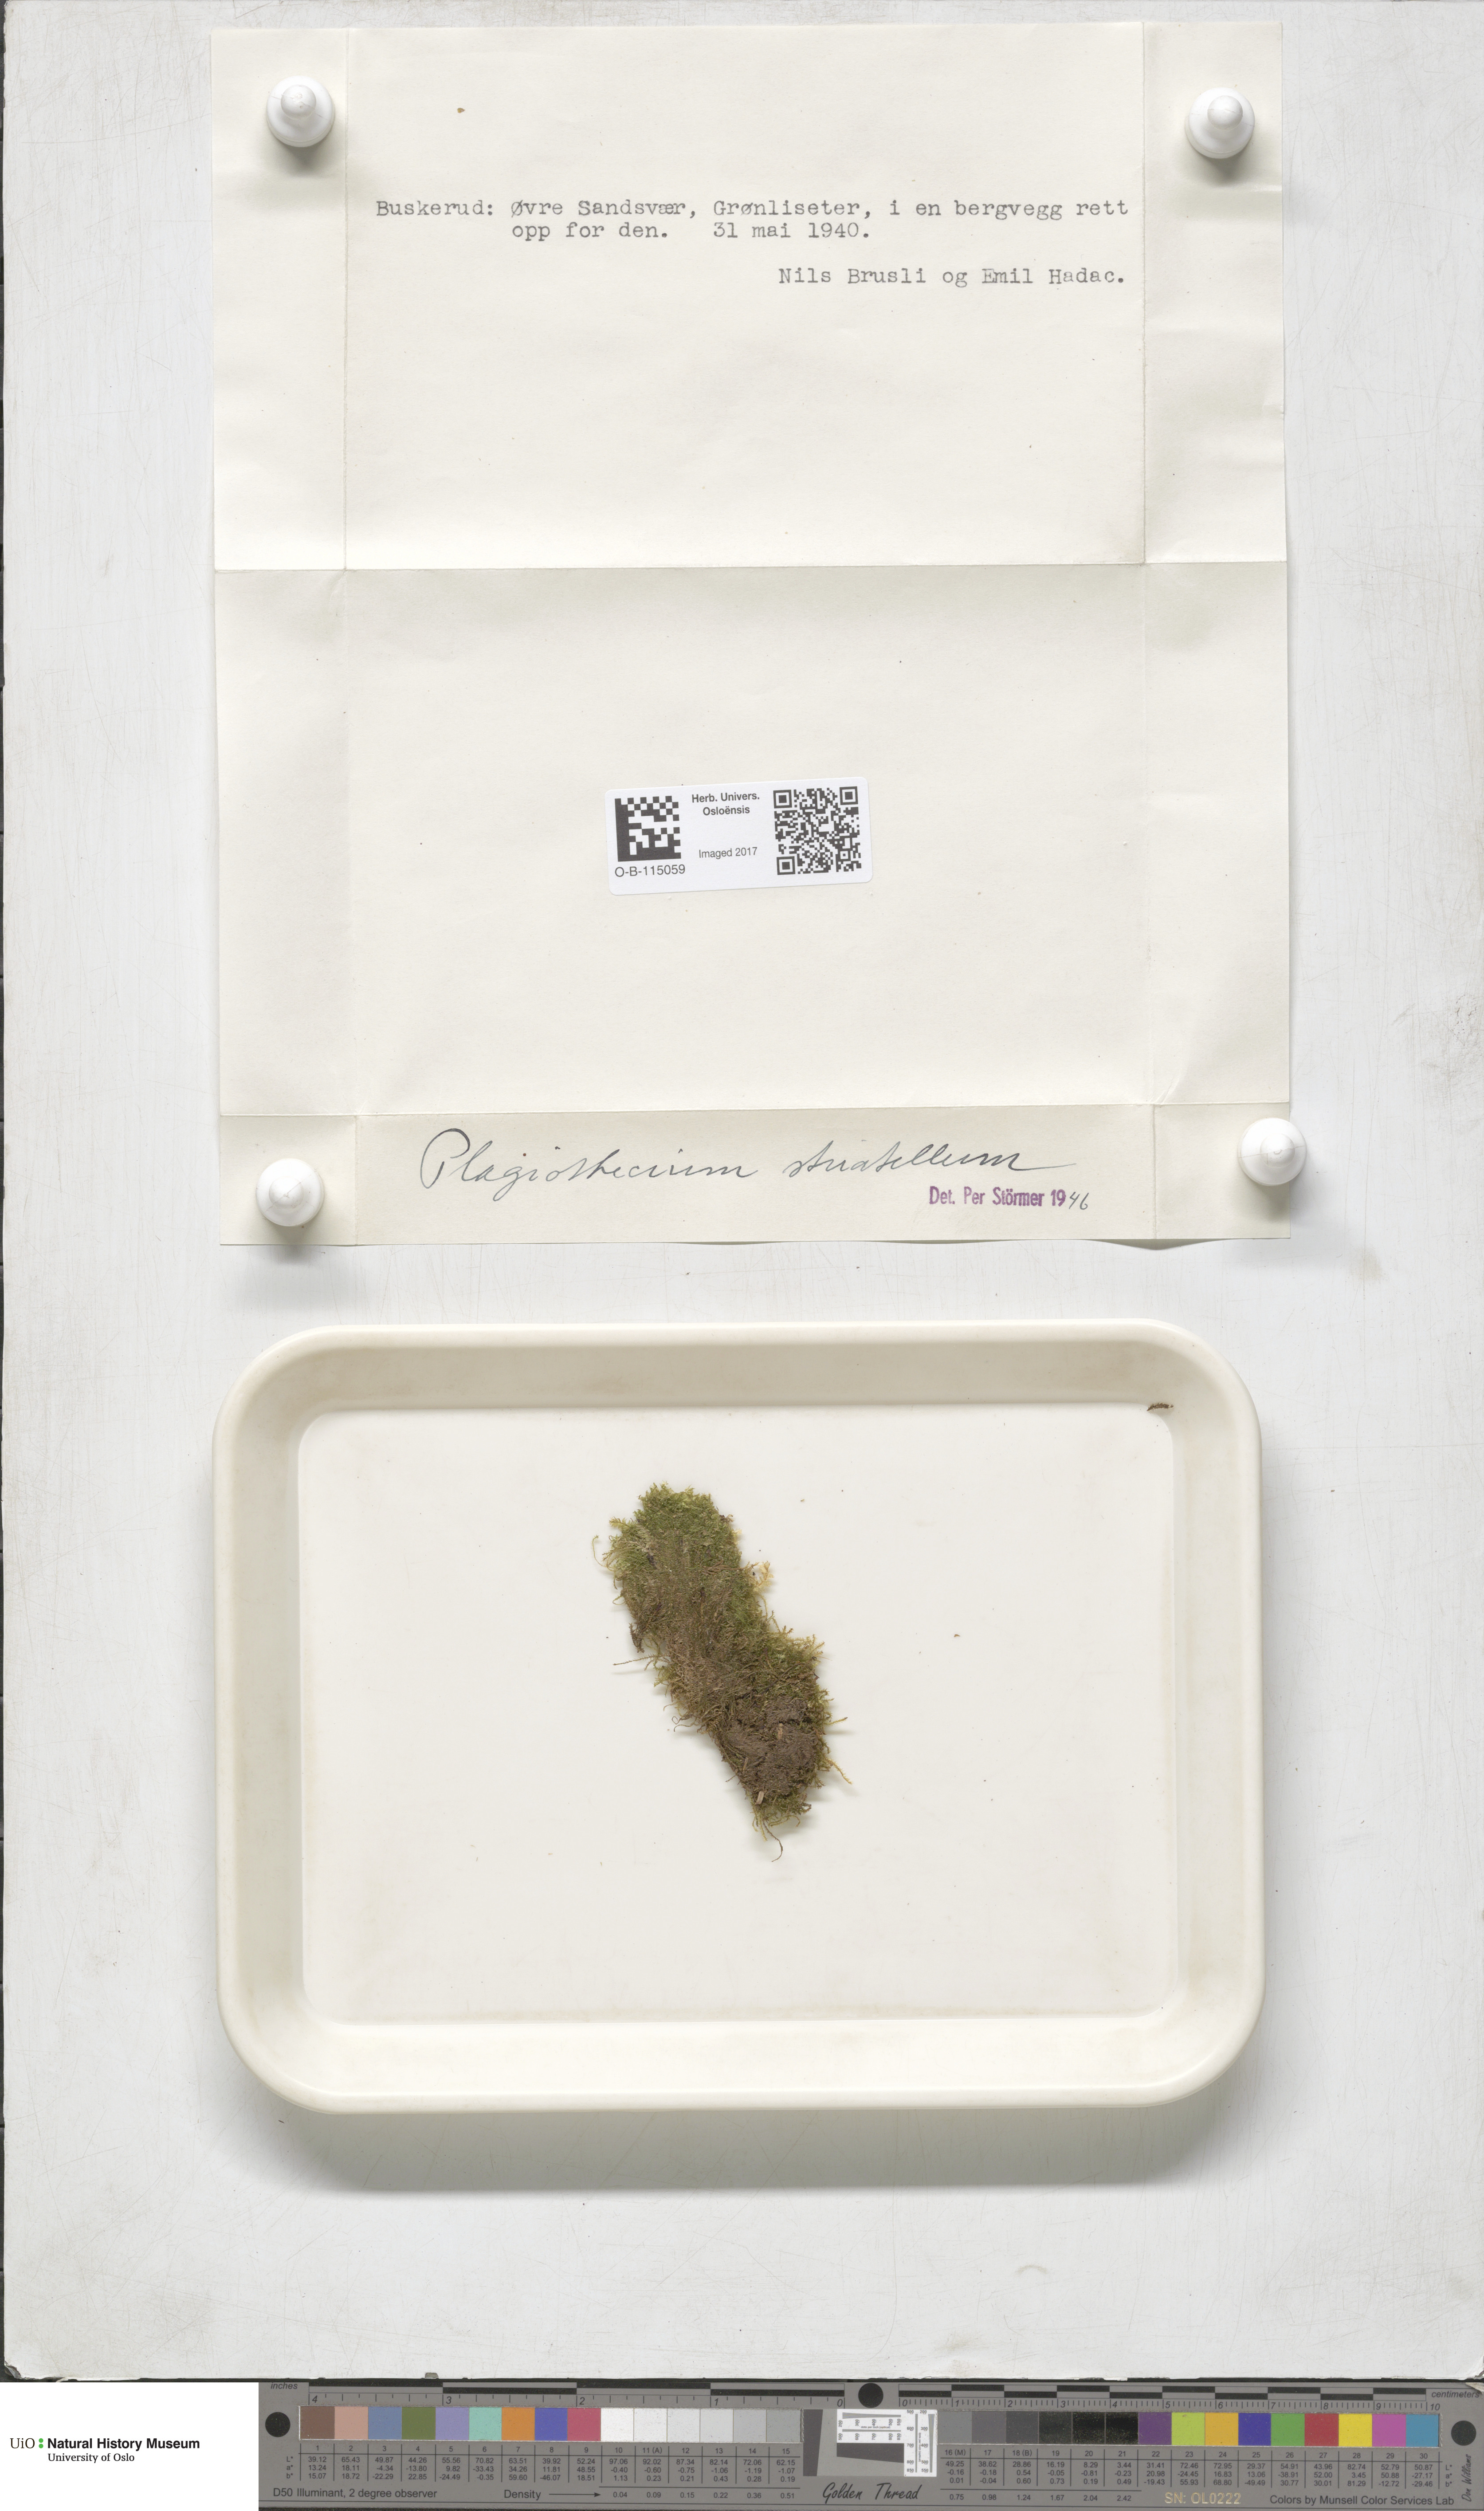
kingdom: Plantae
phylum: Bryophyta
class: Bryopsida
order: Hypnales
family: Plagiotheciaceae
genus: Herzogiella
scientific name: Herzogiella striatella
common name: Muhlenbeck's feather-moss
